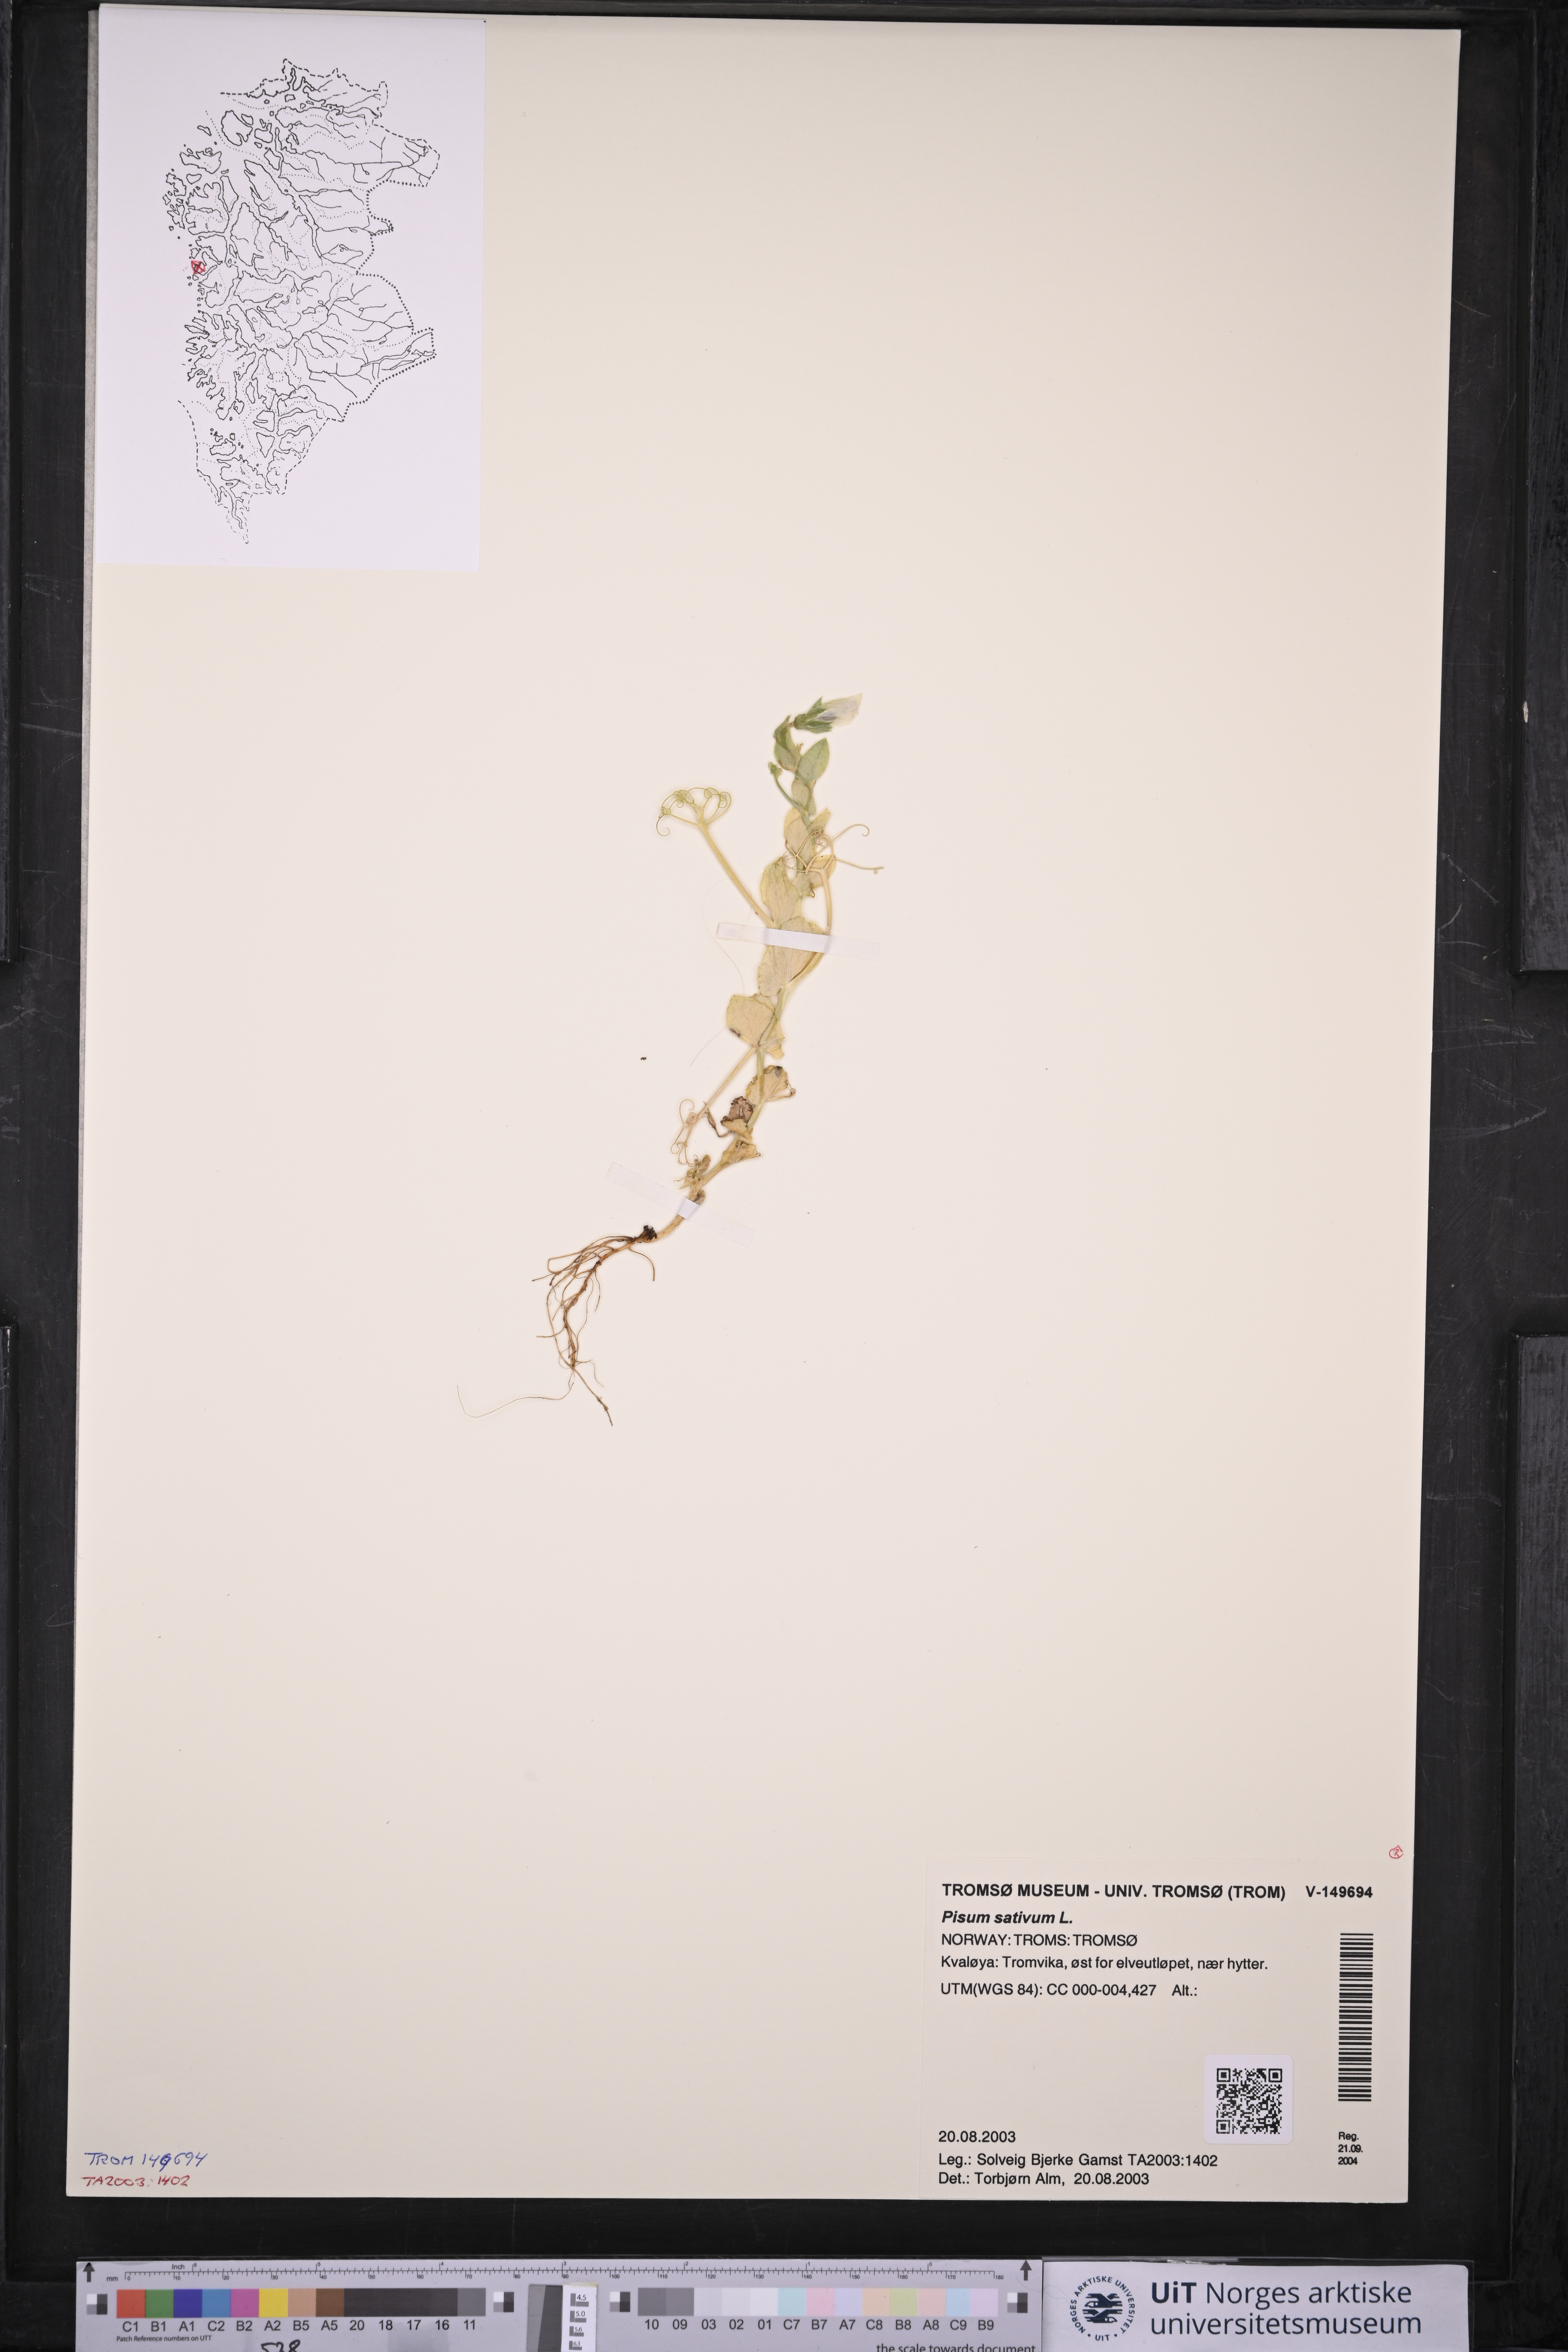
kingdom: Plantae
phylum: Tracheophyta
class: Magnoliopsida
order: Fabales
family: Fabaceae
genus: Lathyrus
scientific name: Lathyrus oleraceus
